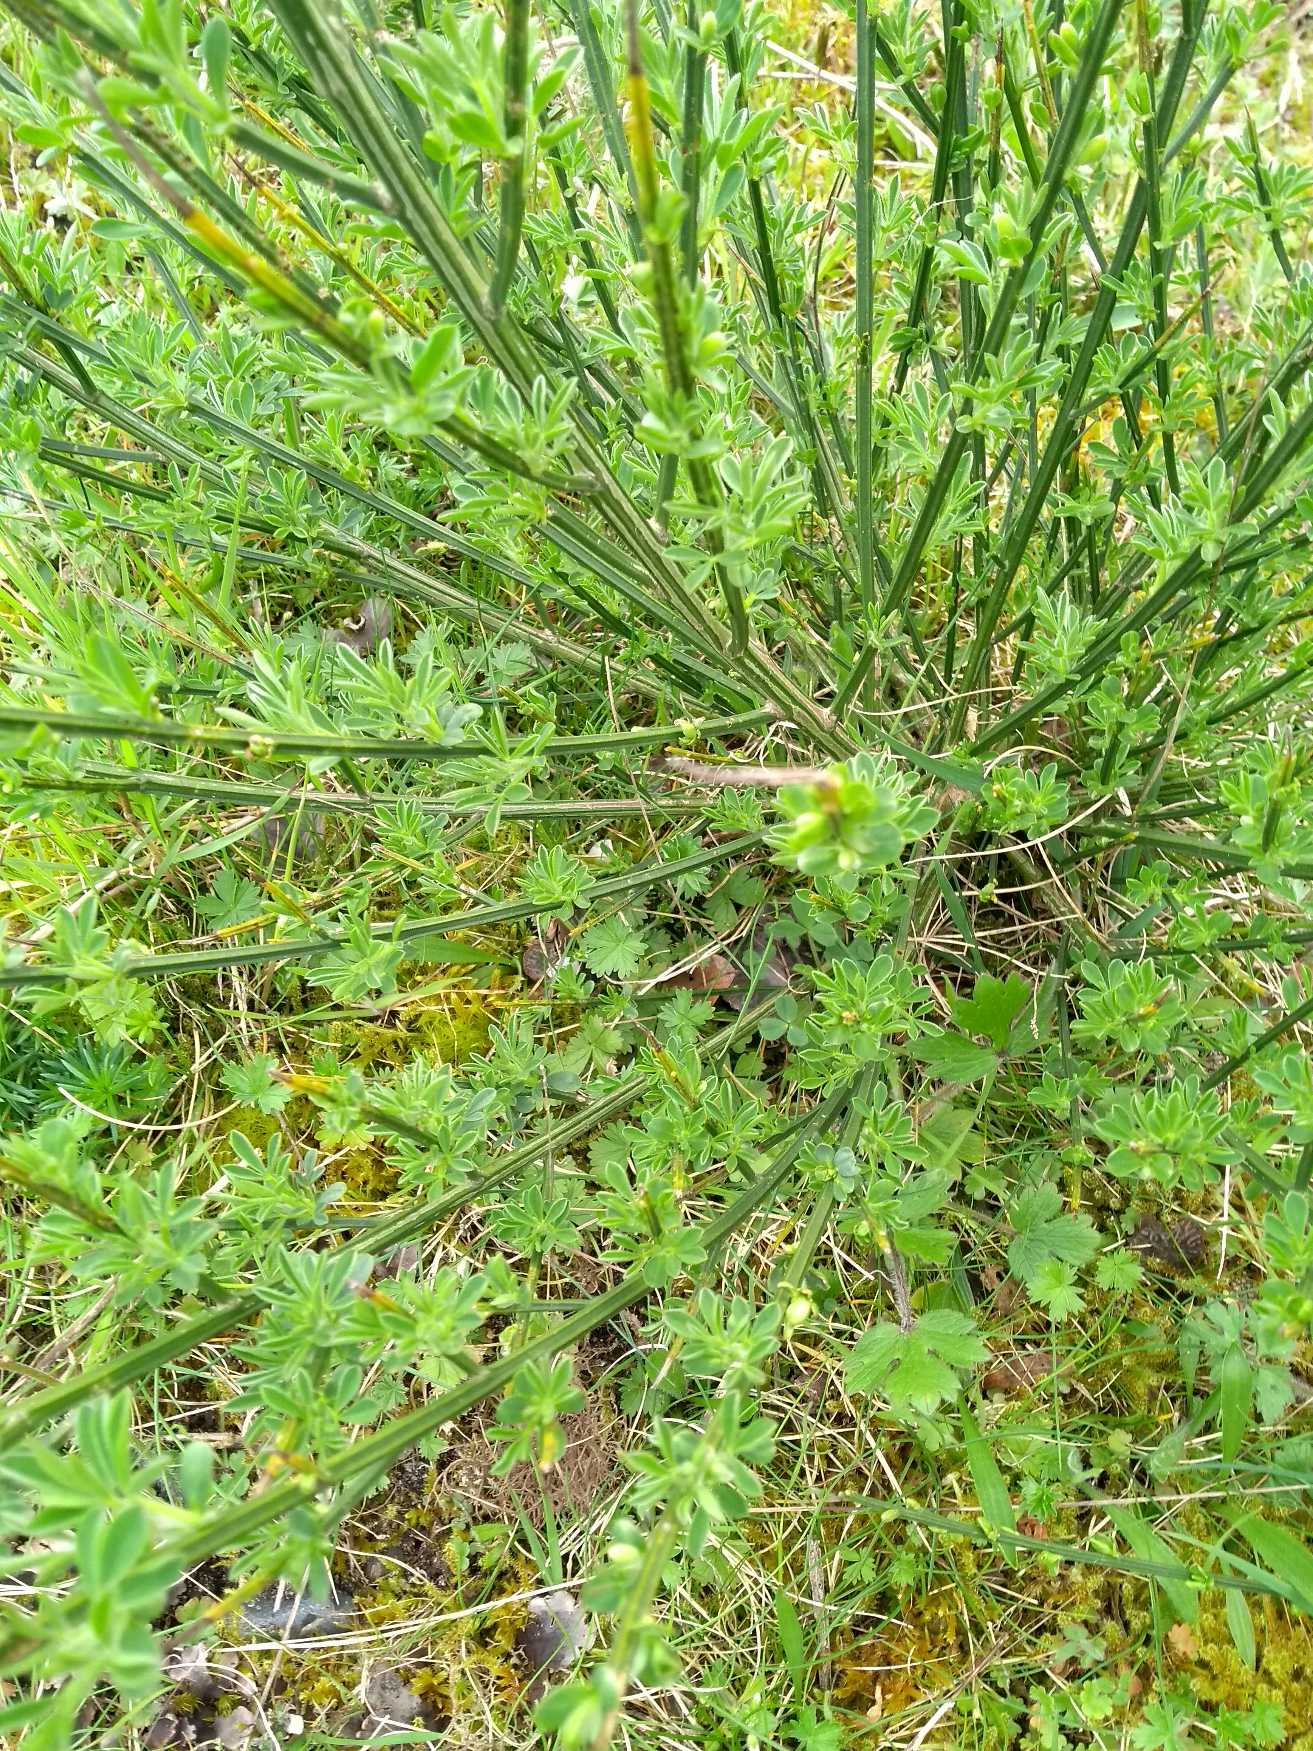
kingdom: Plantae
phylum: Tracheophyta
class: Magnoliopsida
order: Fabales
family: Fabaceae
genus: Cytisus
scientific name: Cytisus scoparius
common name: Almindelig gyvel
